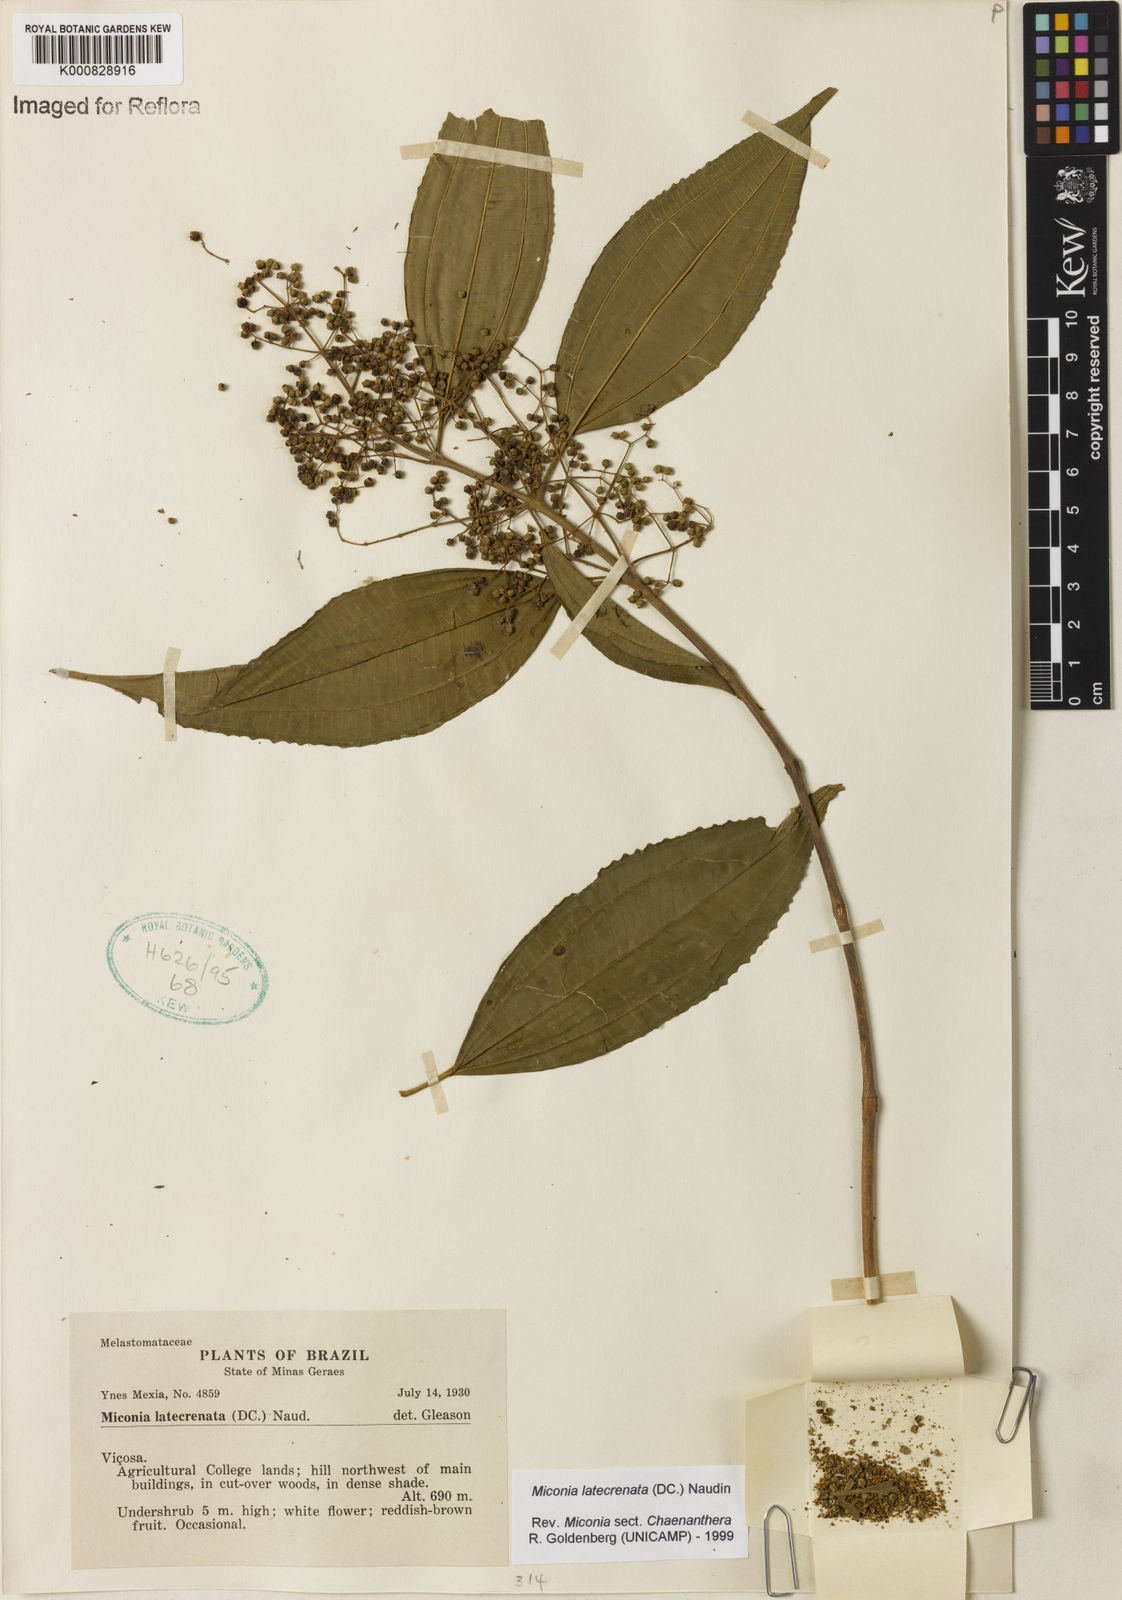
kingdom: Plantae
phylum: Tracheophyta
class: Magnoliopsida
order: Myrtales
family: Melastomataceae
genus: Miconia
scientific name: Miconia latecrenata
